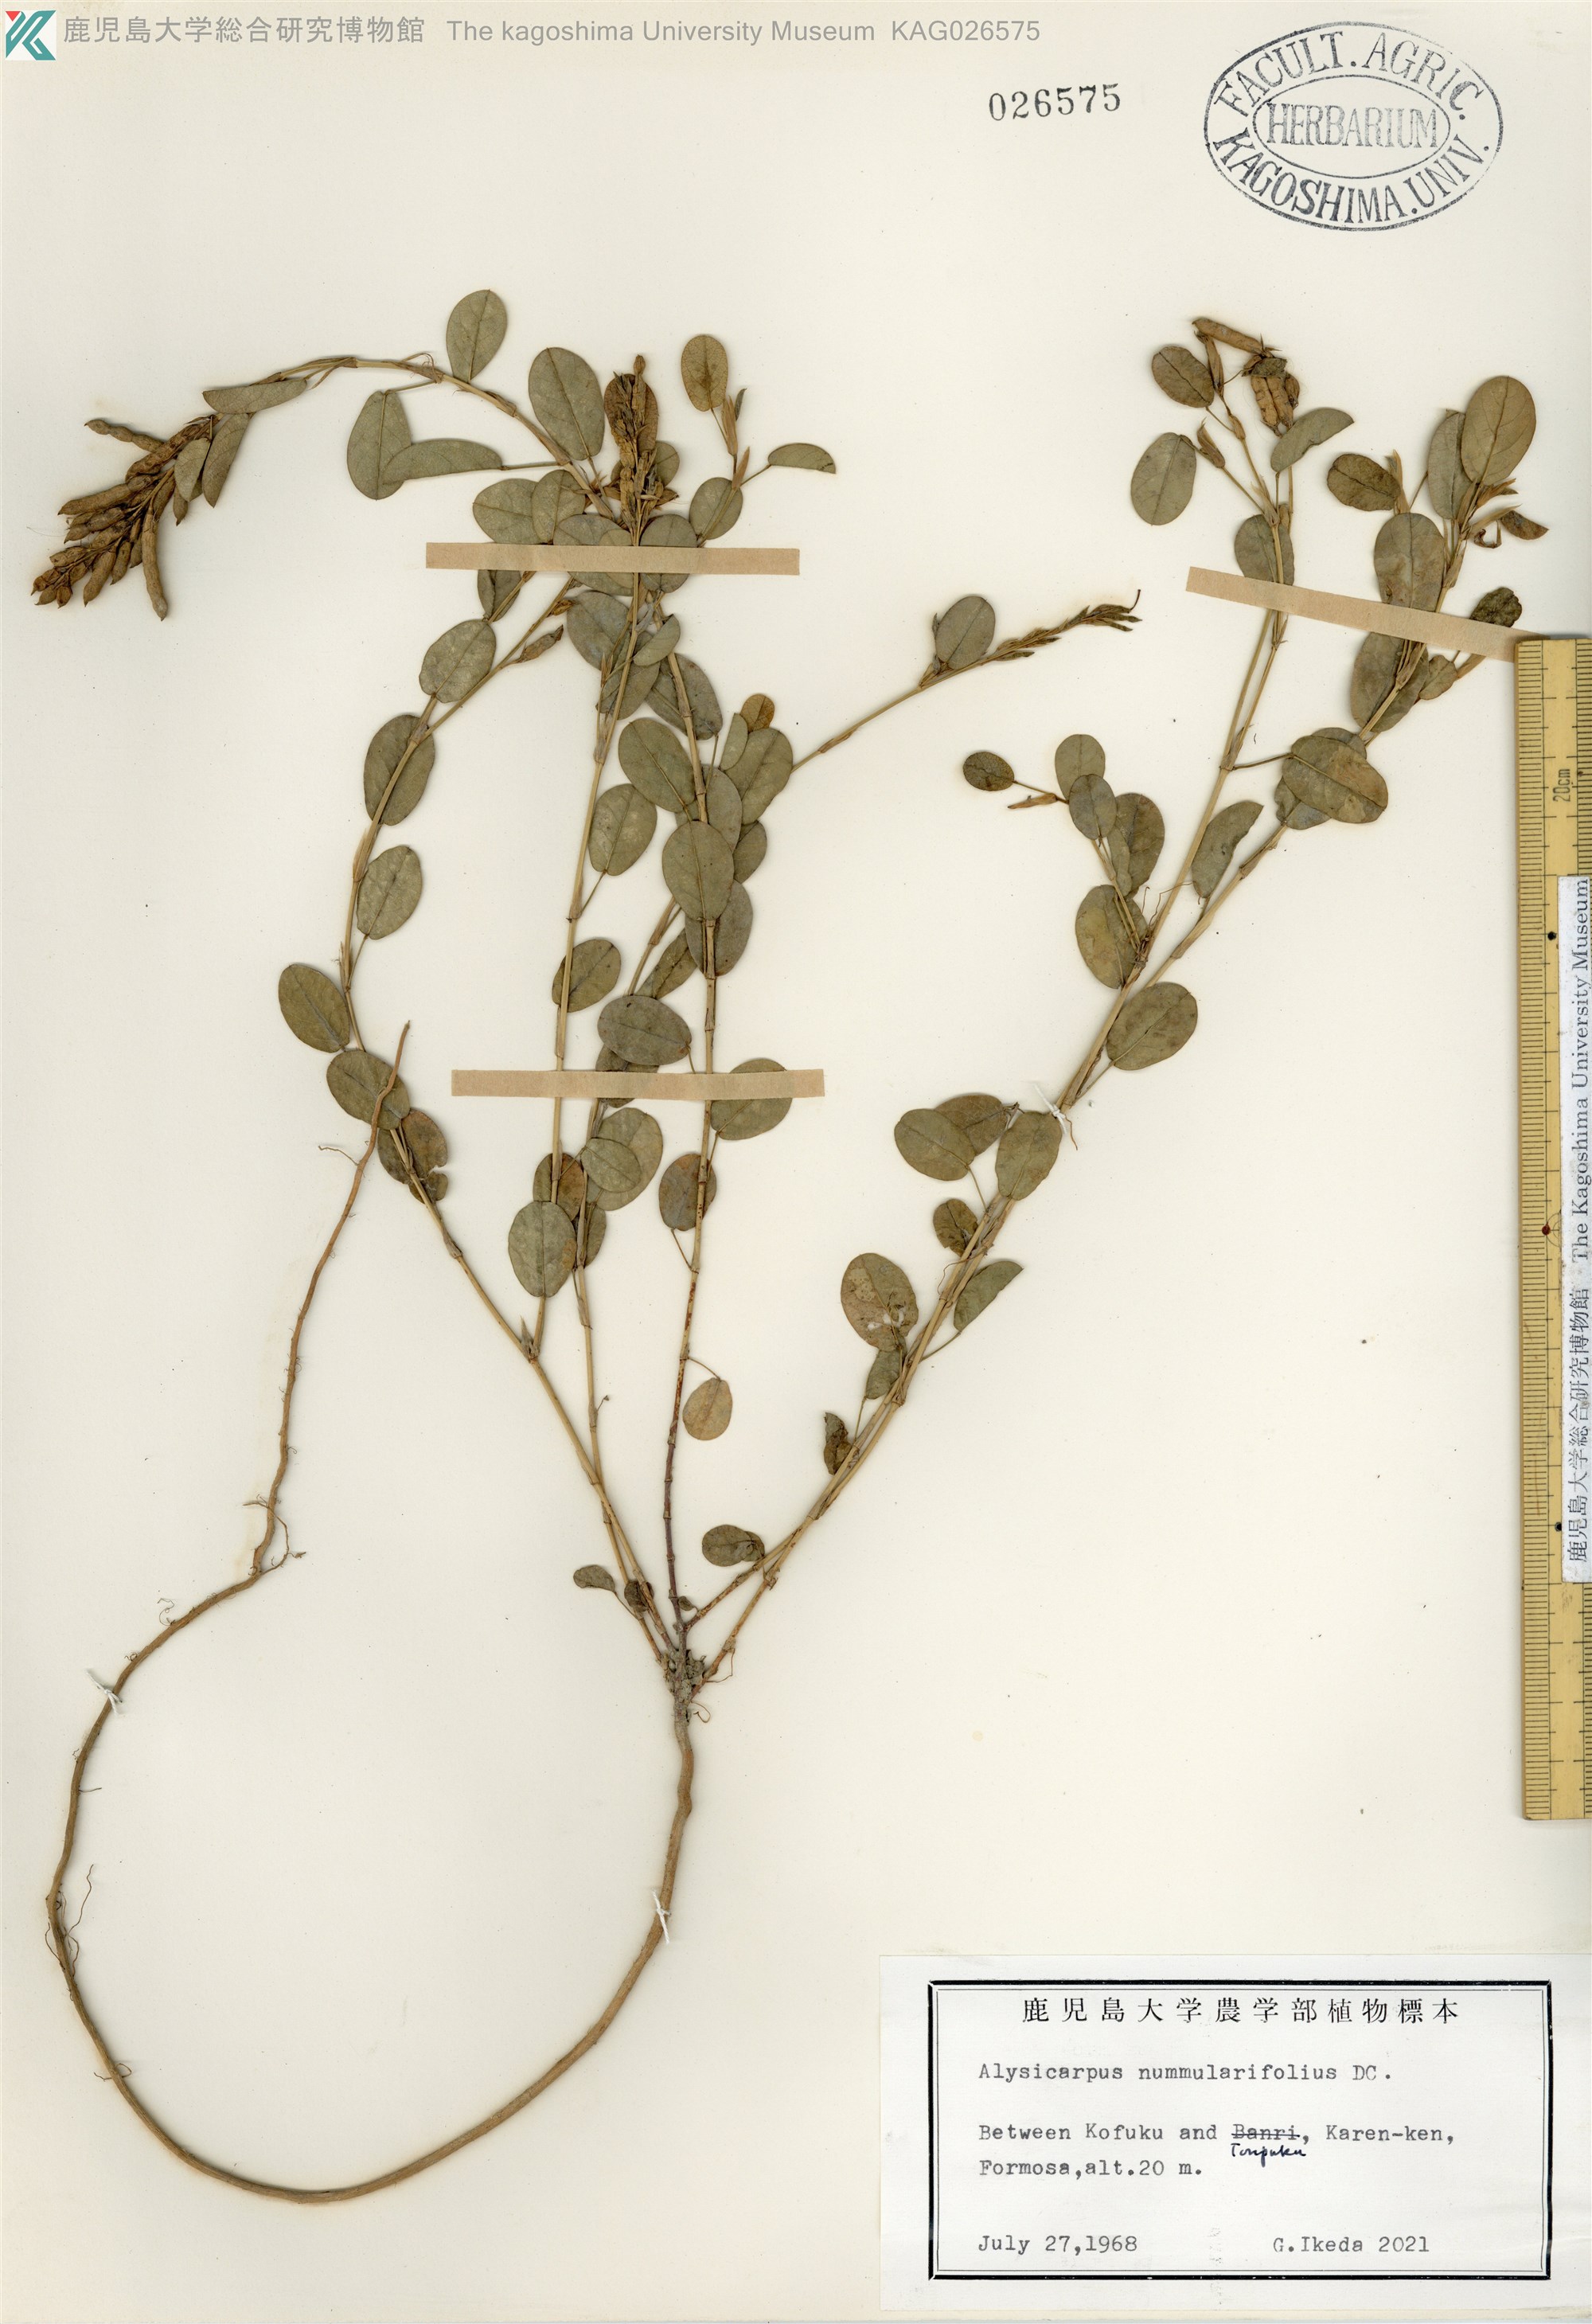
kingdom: Plantae
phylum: Tracheophyta
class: Magnoliopsida
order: Fabales
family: Fabaceae
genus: Alysicarpus
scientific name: Alysicarpus vaginalis
